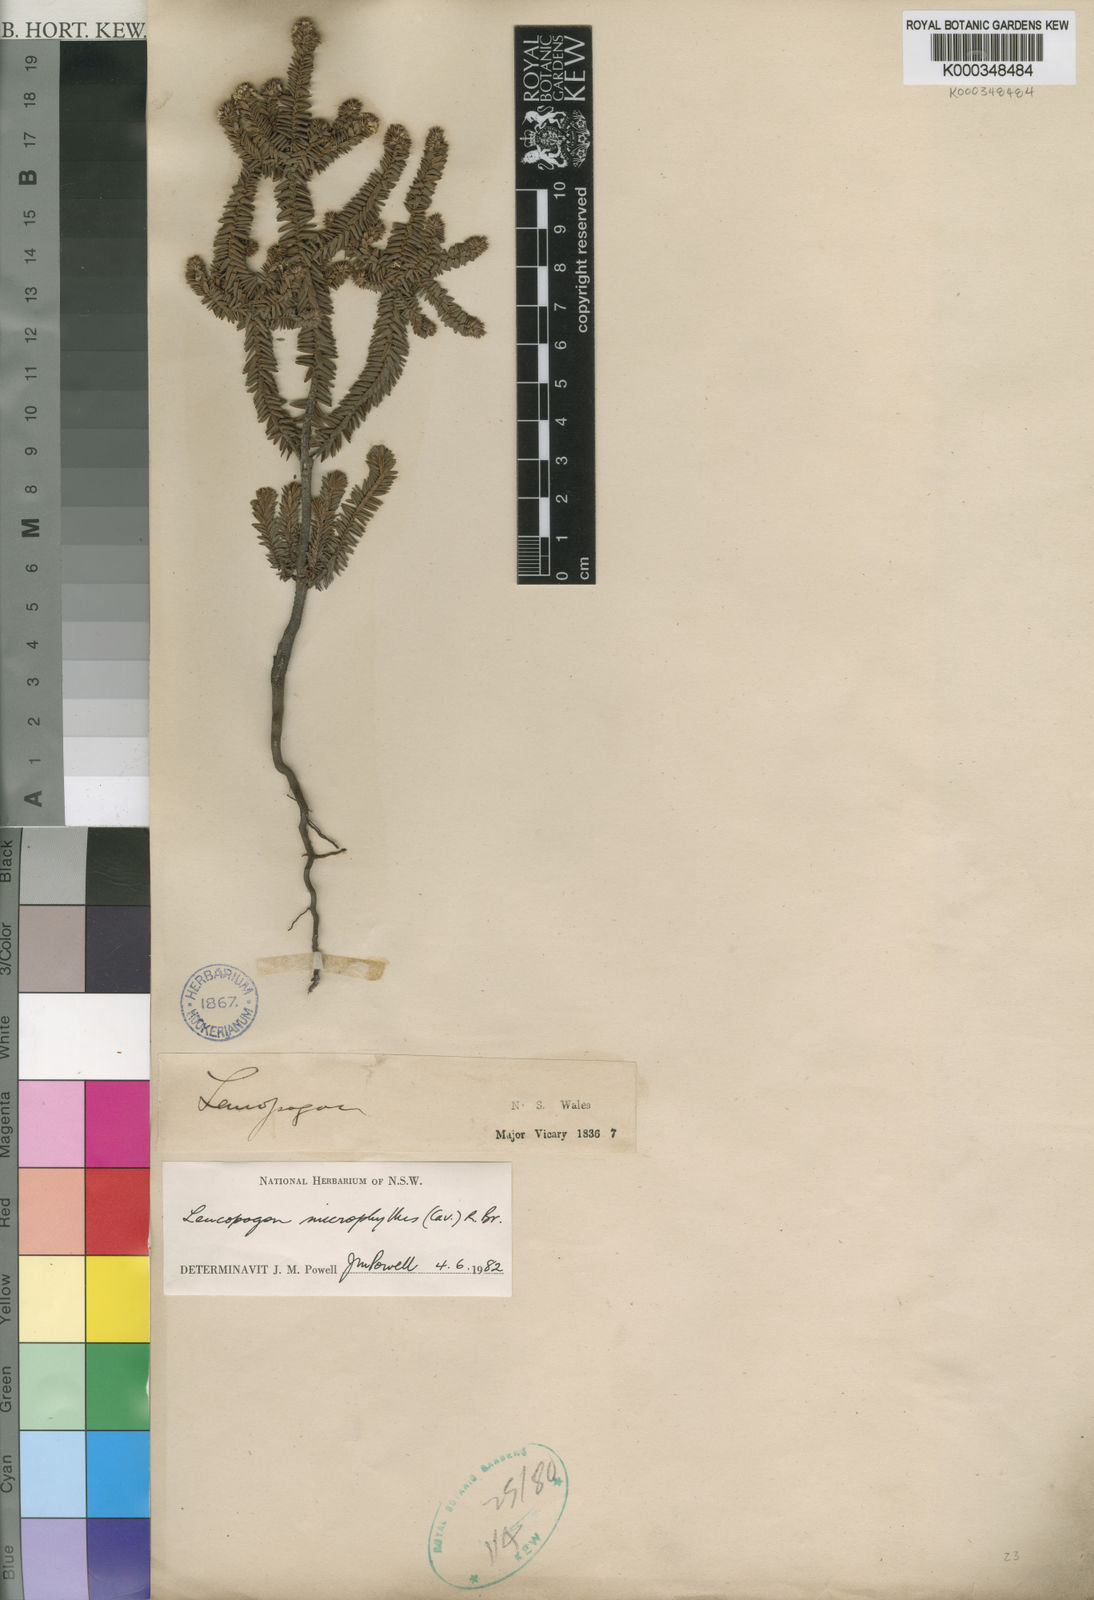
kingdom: Plantae
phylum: Tracheophyta
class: Magnoliopsida
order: Ericales
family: Ericaceae
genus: Leucopogon
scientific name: Leucopogon microphyllus
